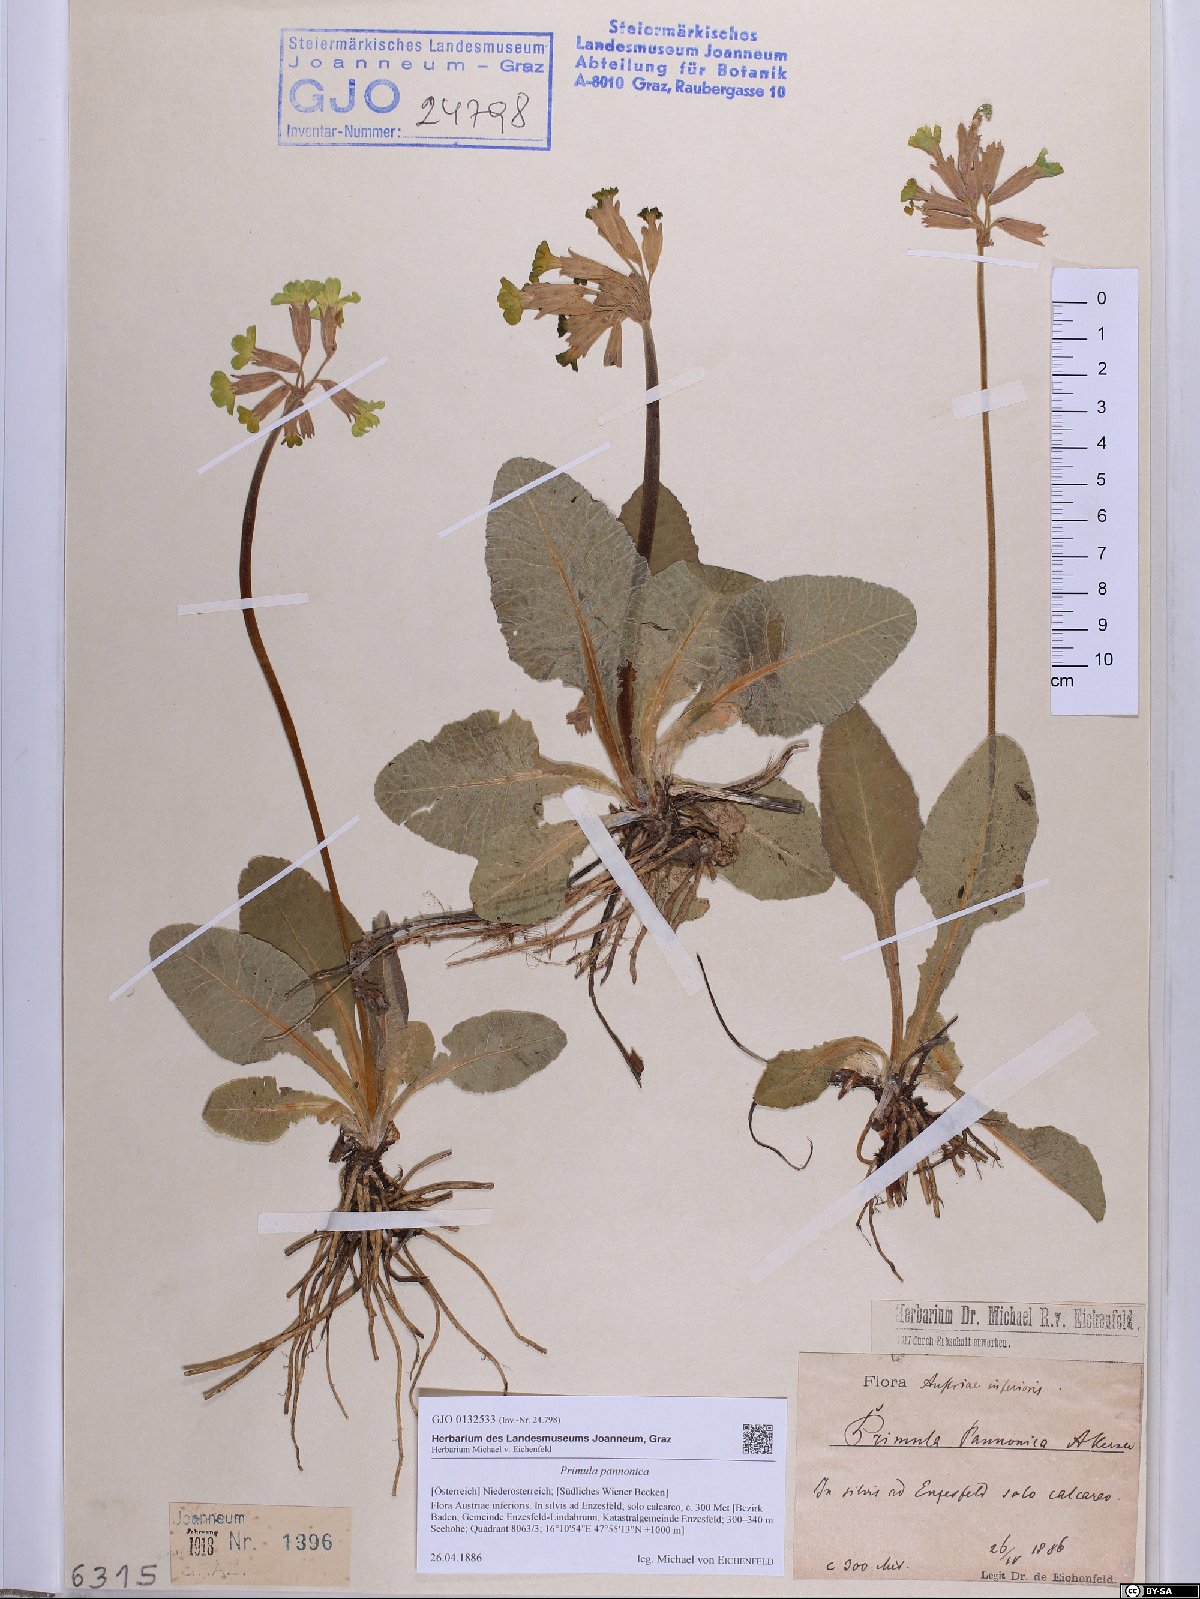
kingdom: Plantae
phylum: Tracheophyta
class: Magnoliopsida
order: Ericales
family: Primulaceae
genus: Primula
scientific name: Primula veris
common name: Cowslip
